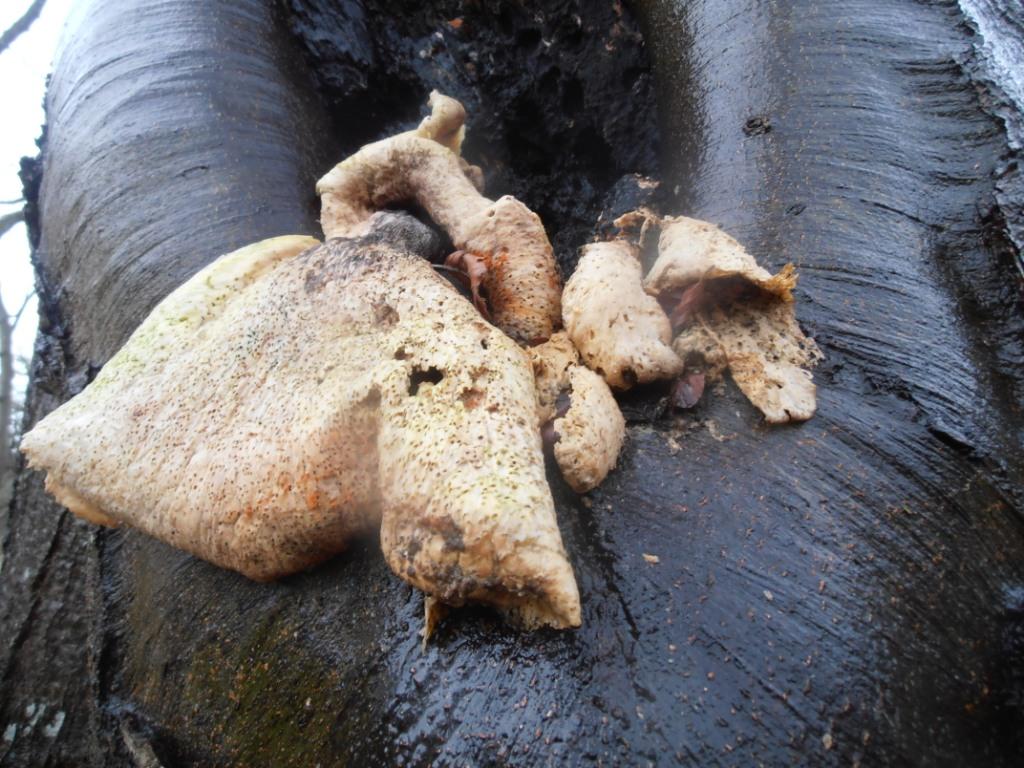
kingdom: Fungi
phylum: Basidiomycota
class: Agaricomycetes
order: Polyporales
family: Polyporaceae
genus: Cerioporus
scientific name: Cerioporus squamosus
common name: skællet stilkporesvamp
